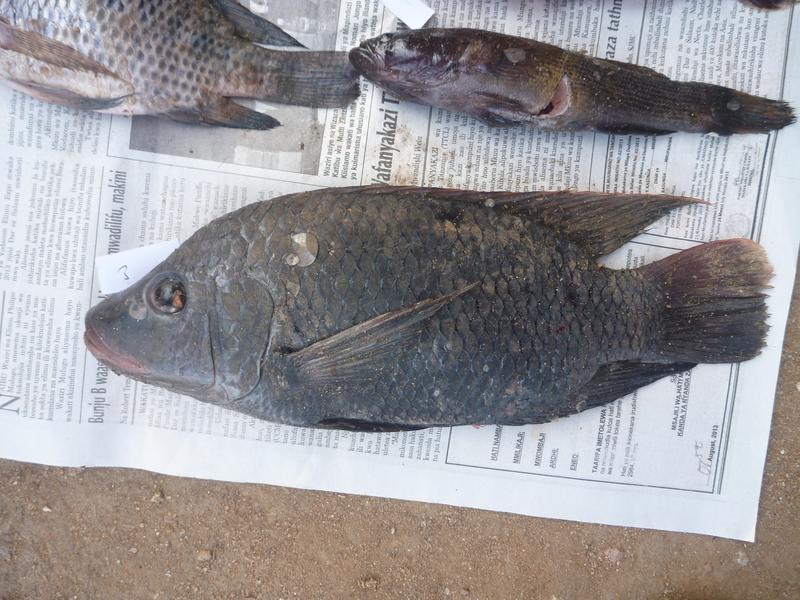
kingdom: Animalia
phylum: Chordata
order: Perciformes
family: Cichlidae
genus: Oreochromis
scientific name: Oreochromis urolepis
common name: Wami tilapia
